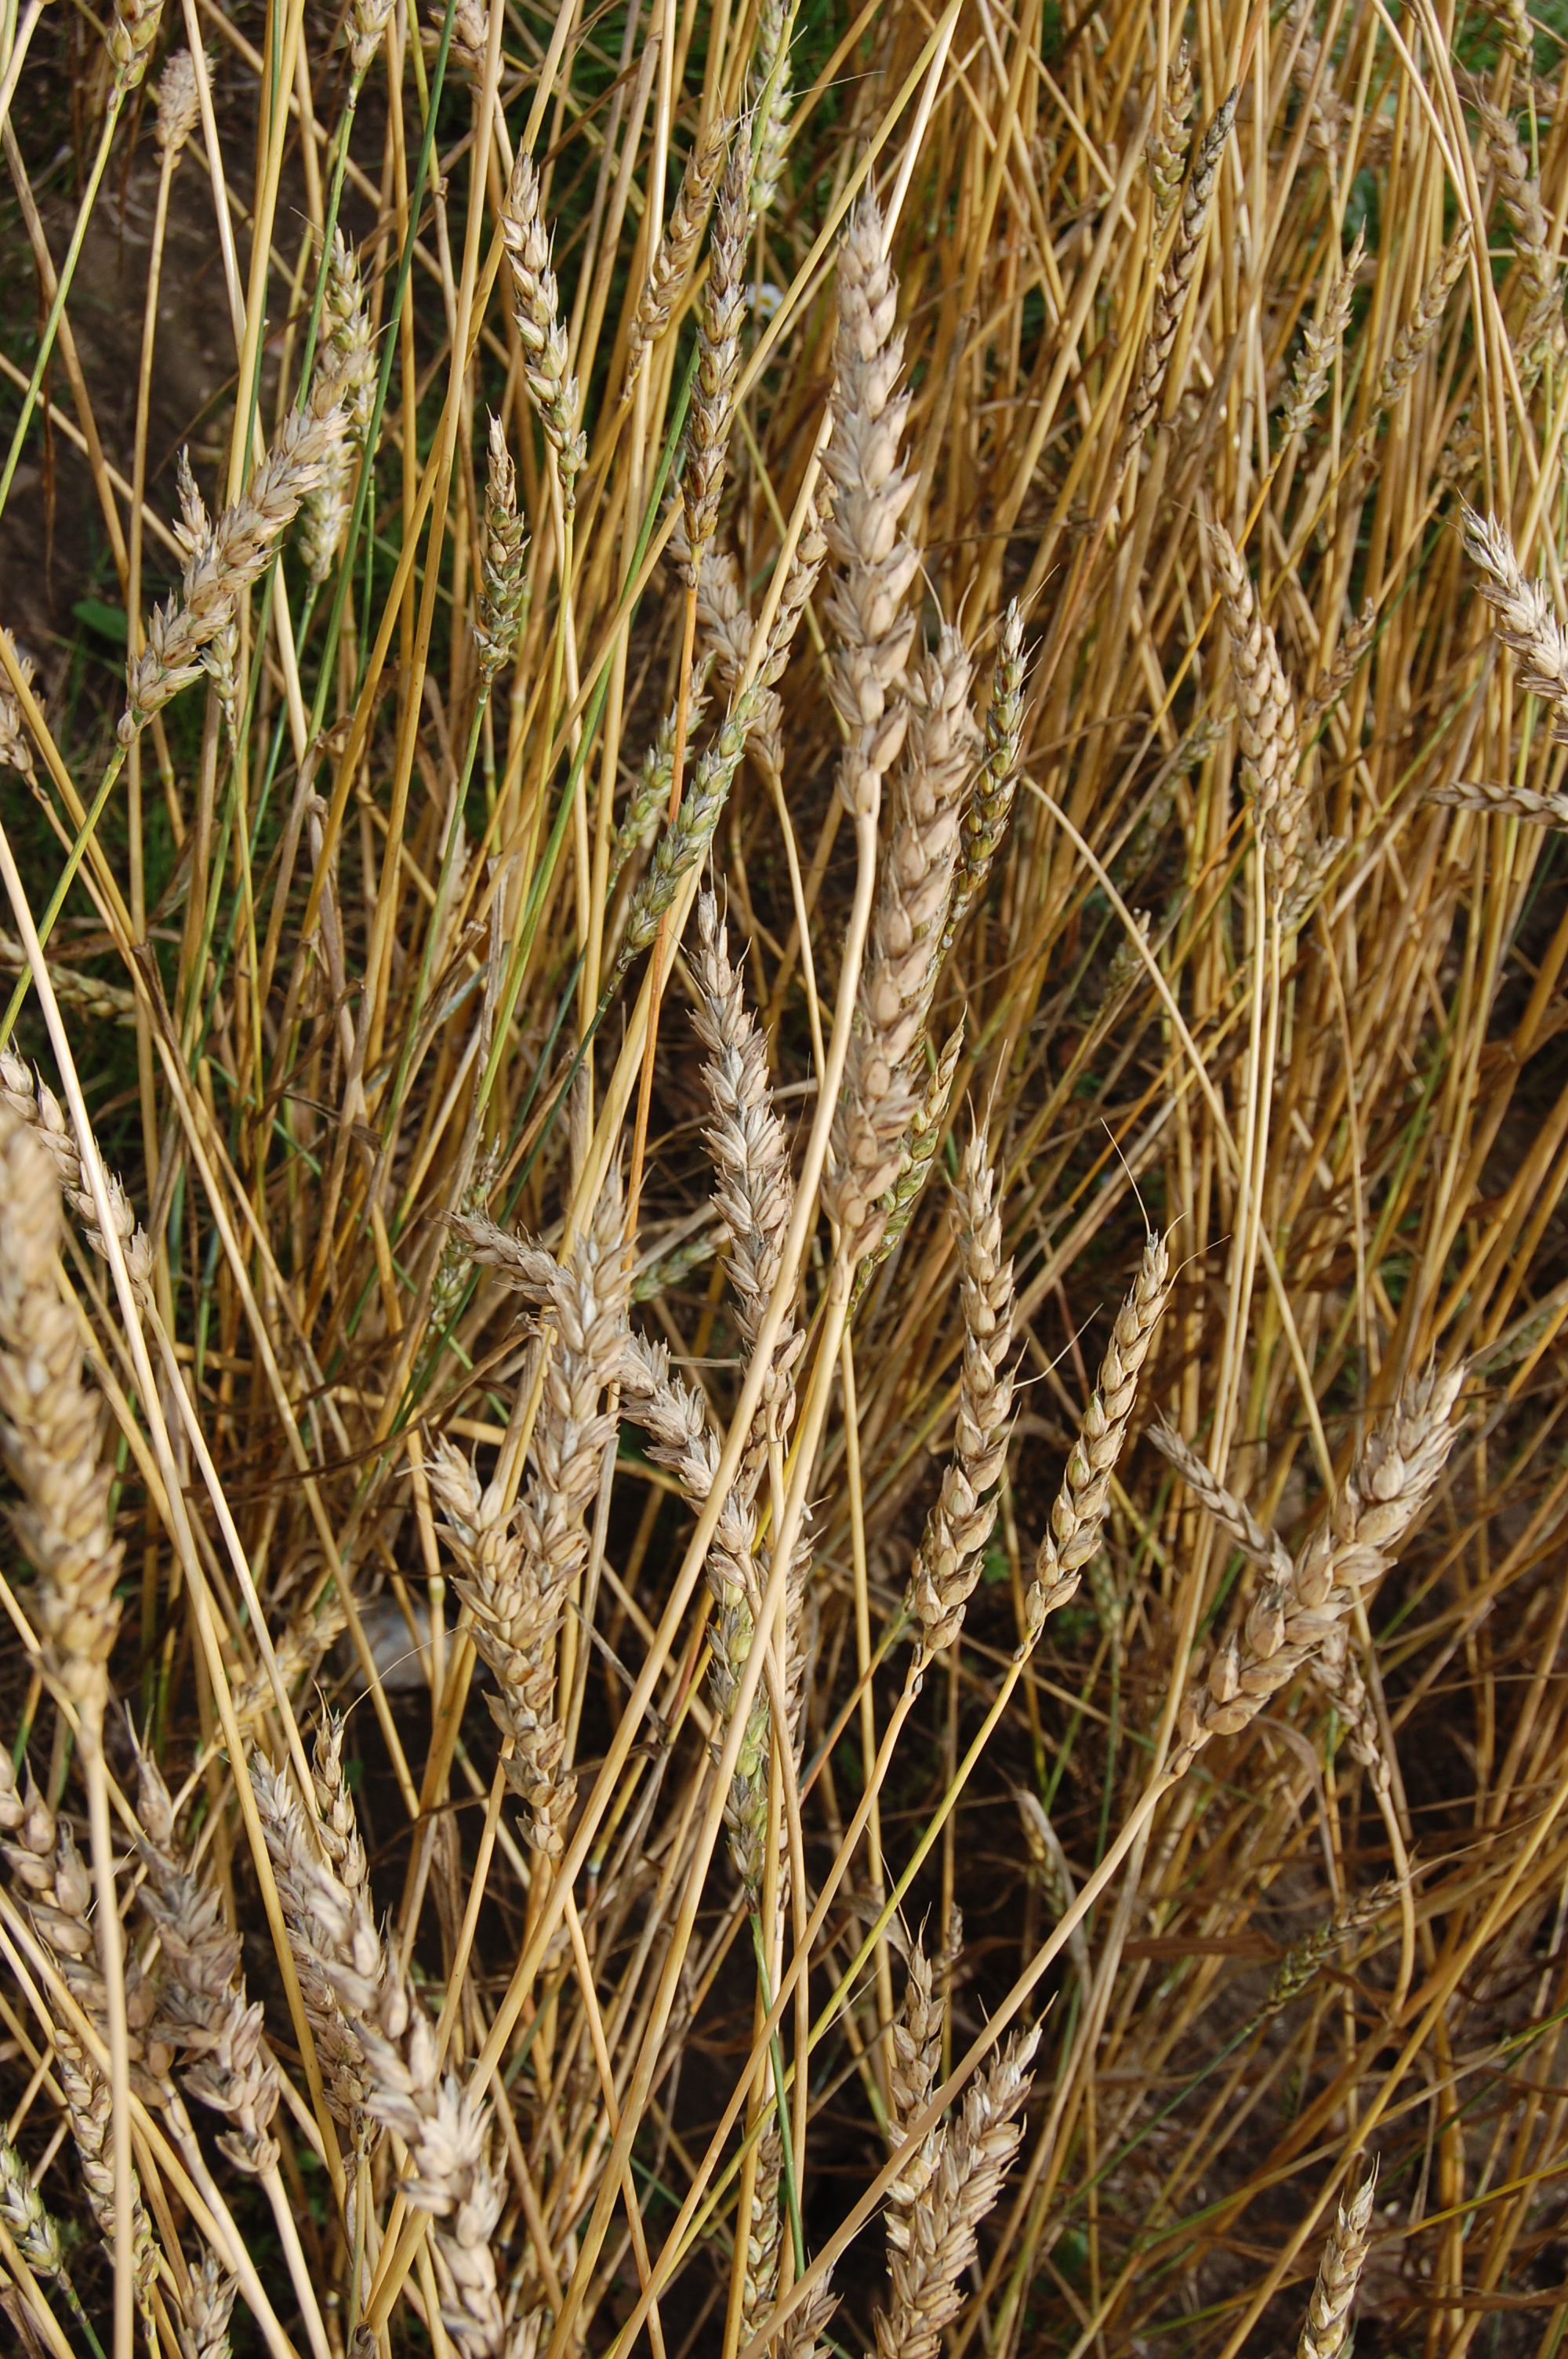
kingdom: Plantae
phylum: Tracheophyta
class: Liliopsida
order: Poales
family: Poaceae
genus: Triticum
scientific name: Triticum aestivum
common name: Common wheat
